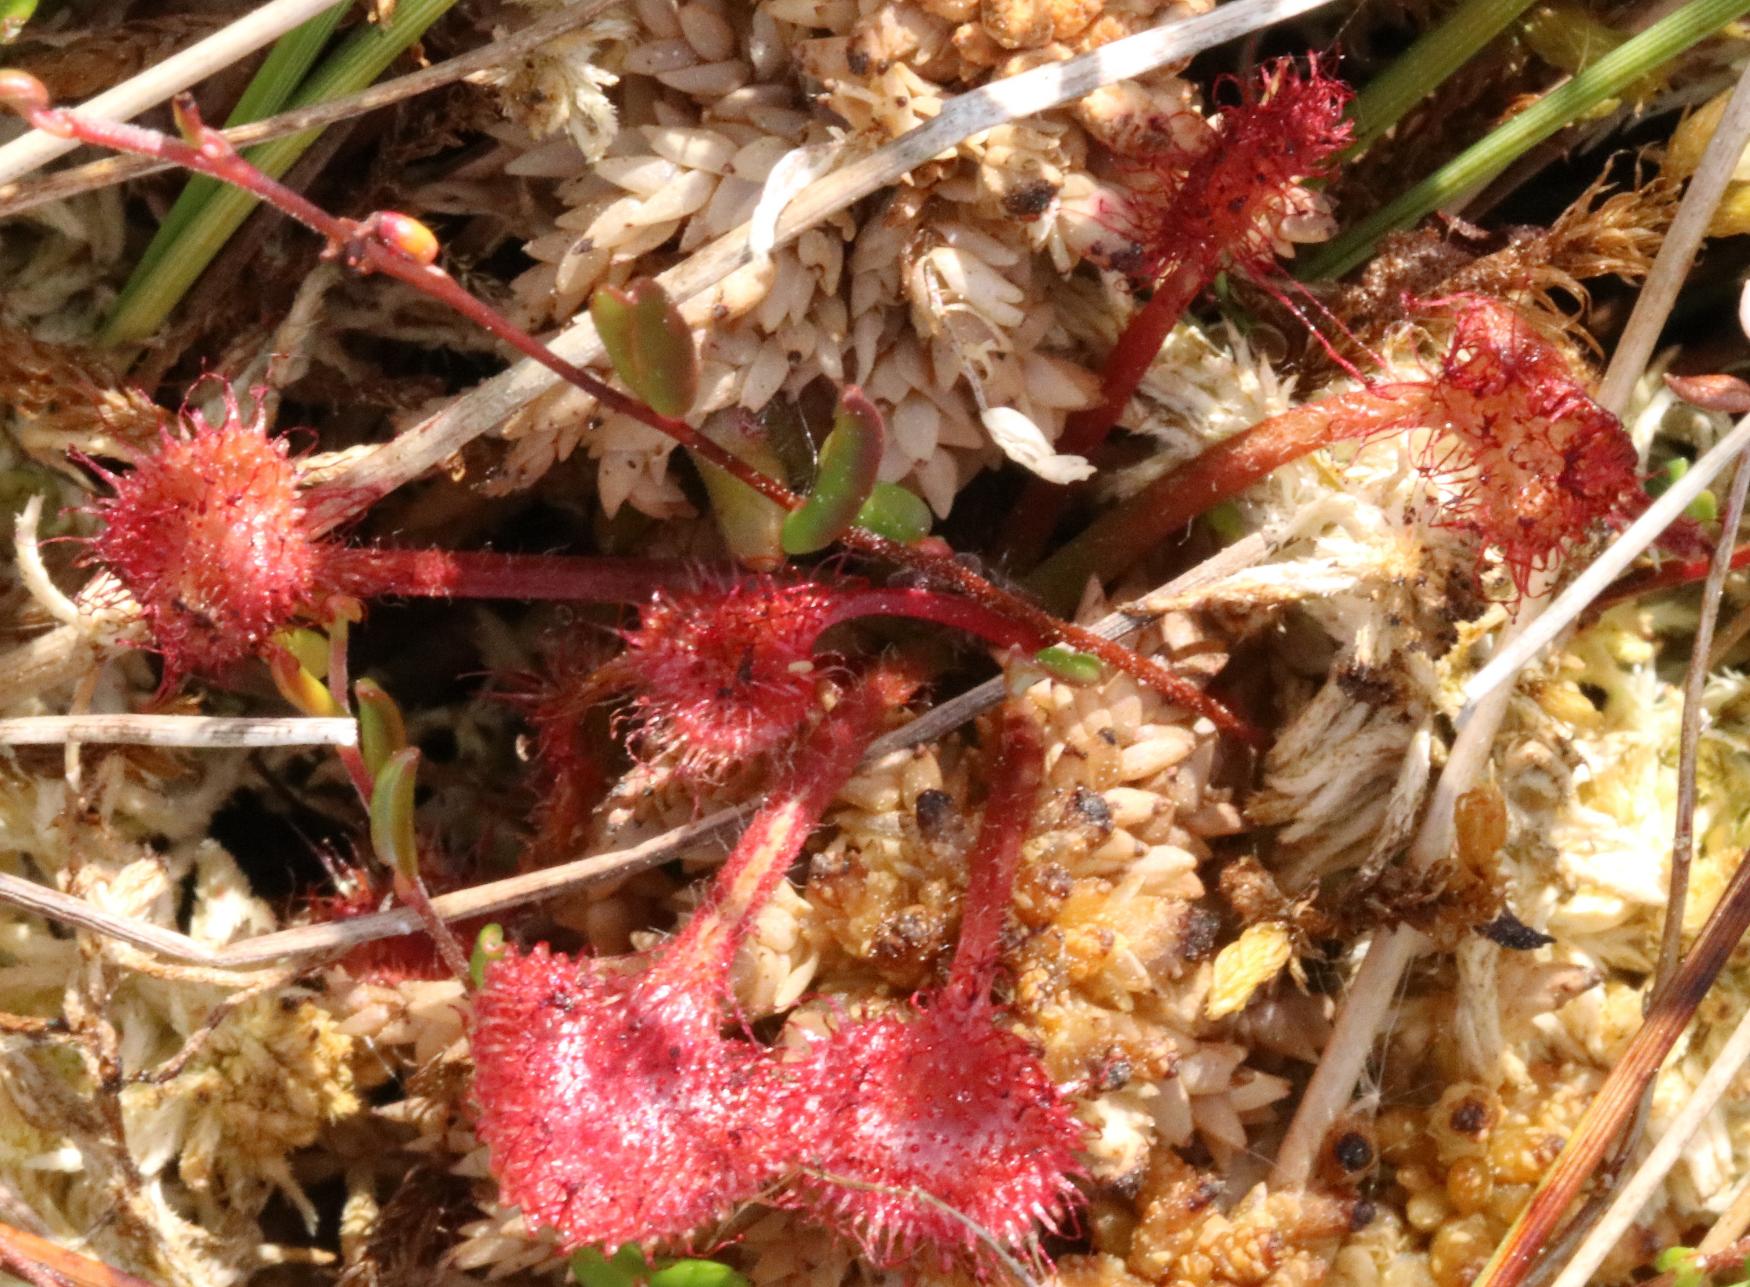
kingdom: Plantae
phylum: Tracheophyta
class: Magnoliopsida
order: Caryophyllales
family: Droseraceae
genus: Drosera
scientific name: Drosera rotundifolia
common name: Rundbladet soldug
